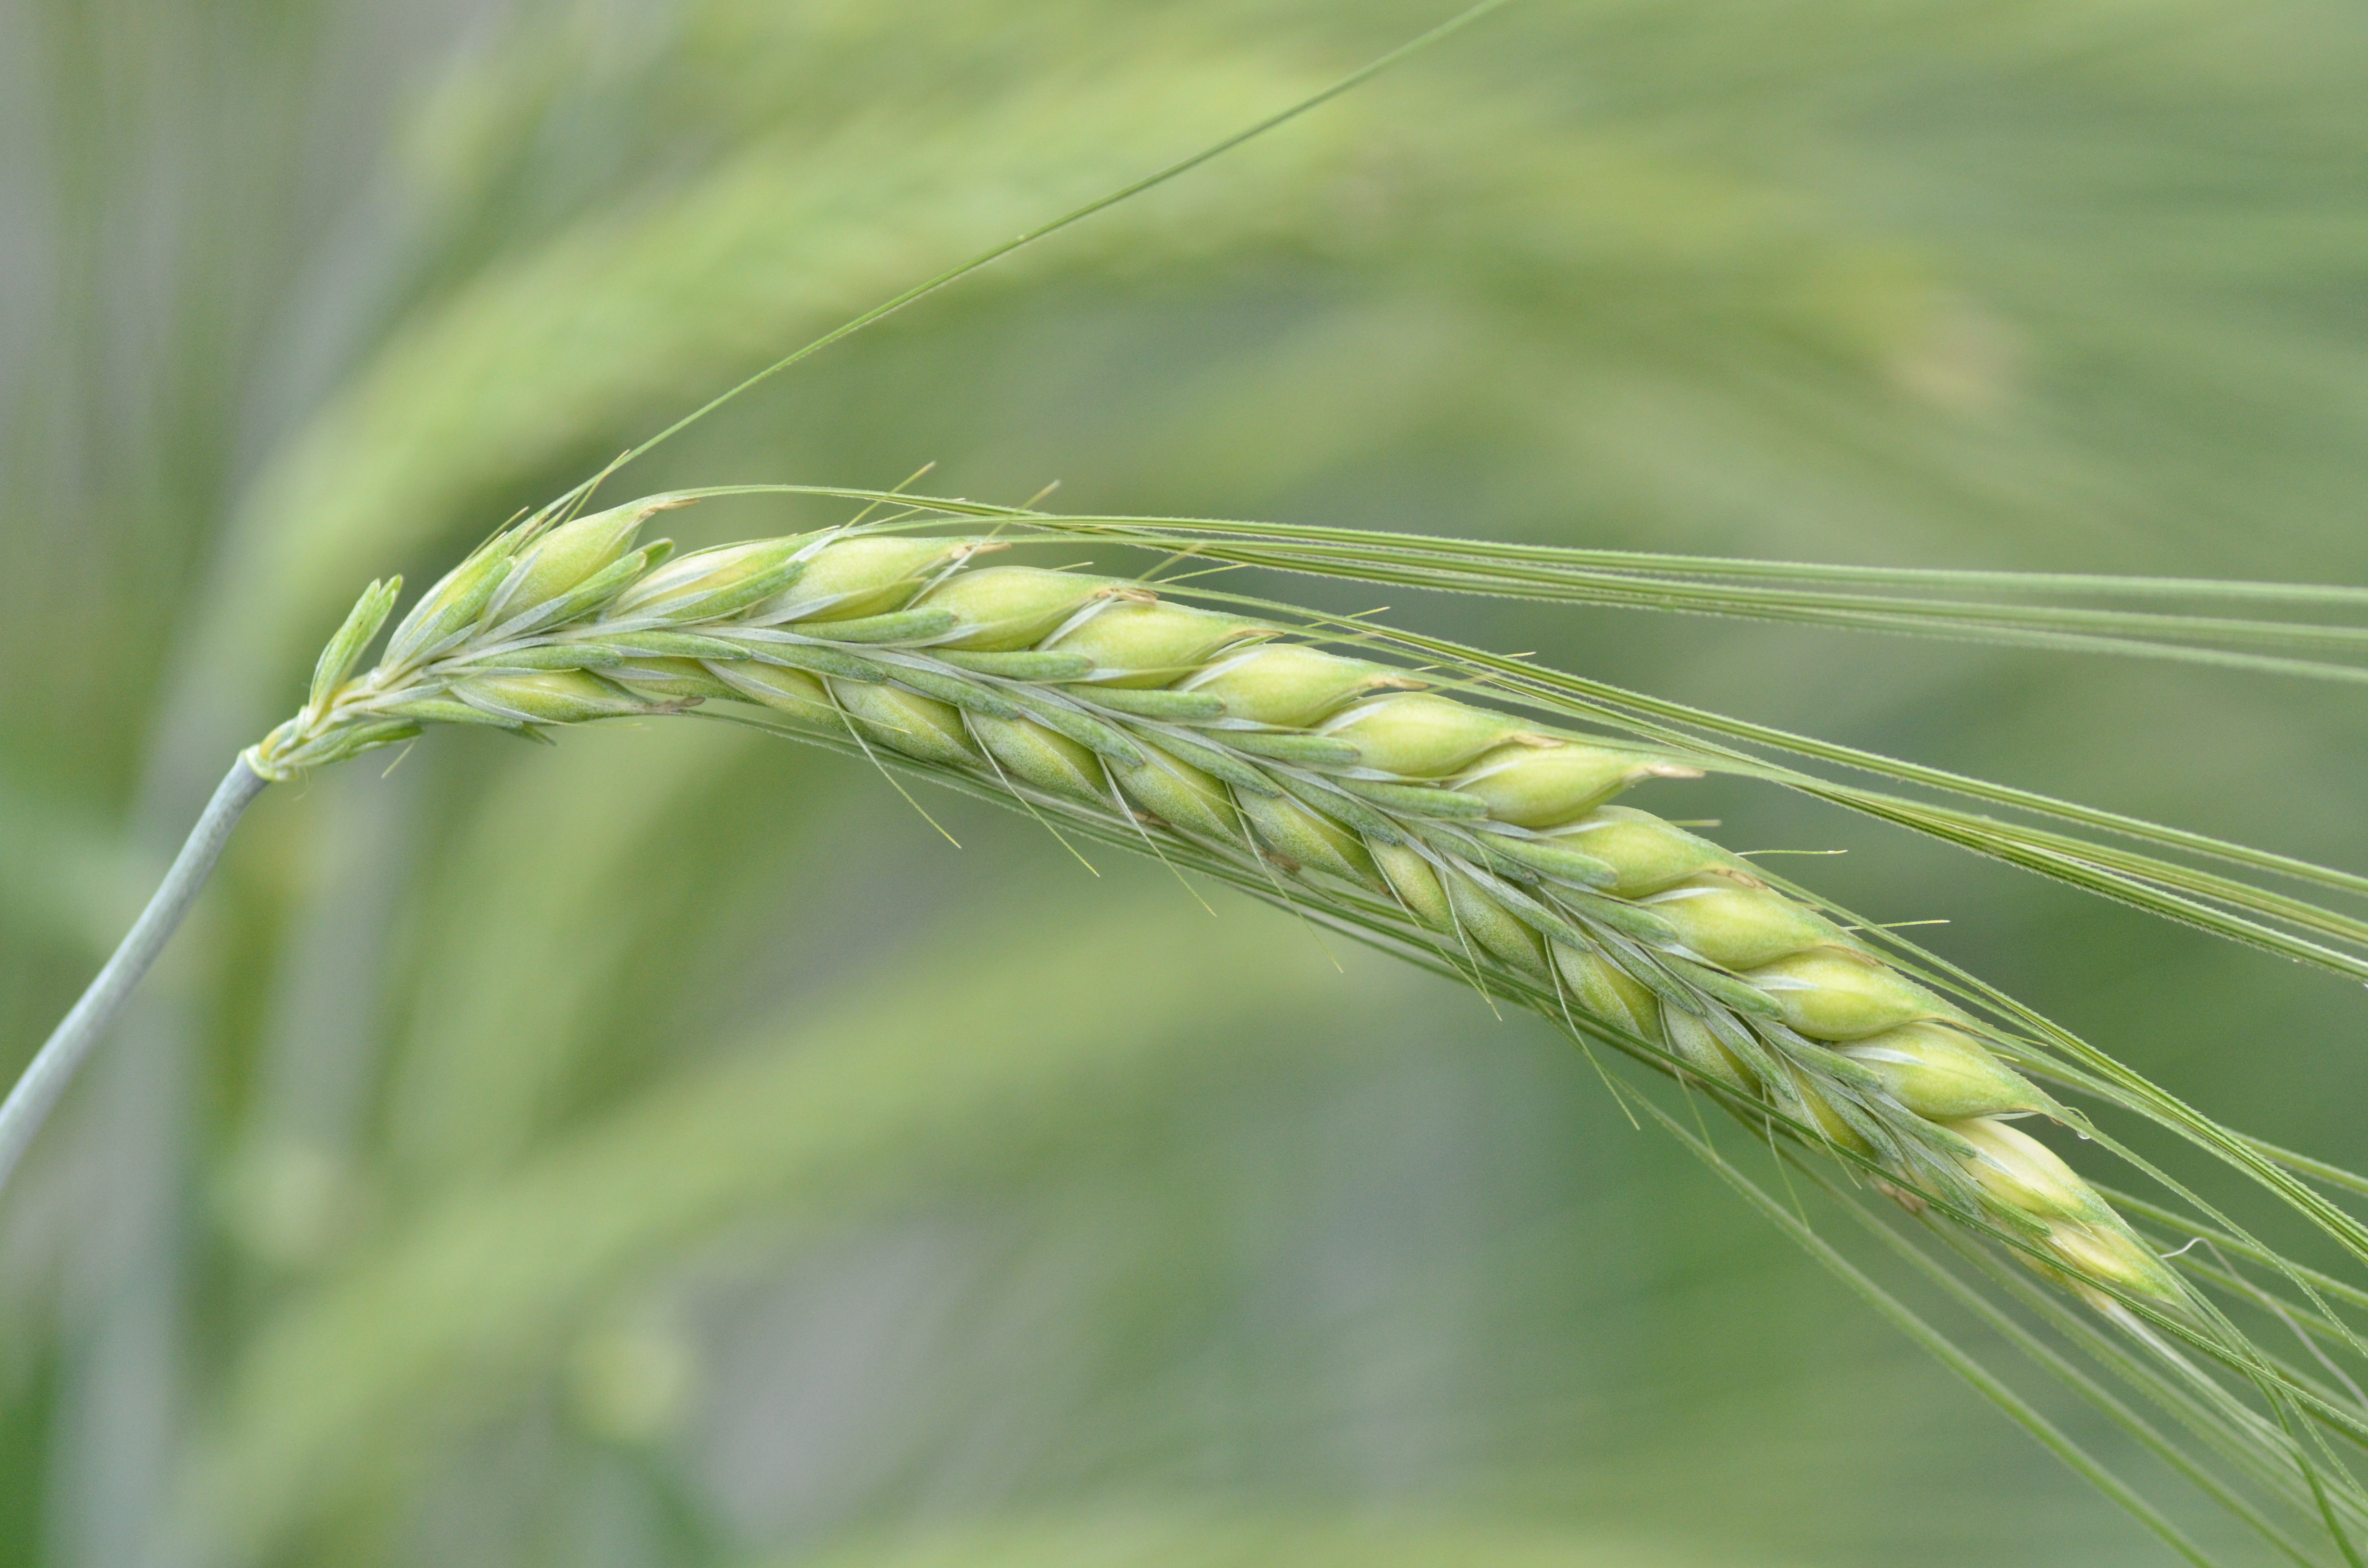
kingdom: Plantae
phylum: Tracheophyta
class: Liliopsida
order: Poales
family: Poaceae
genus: Hordeum
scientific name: Hordeum vulgare
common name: Common barley
